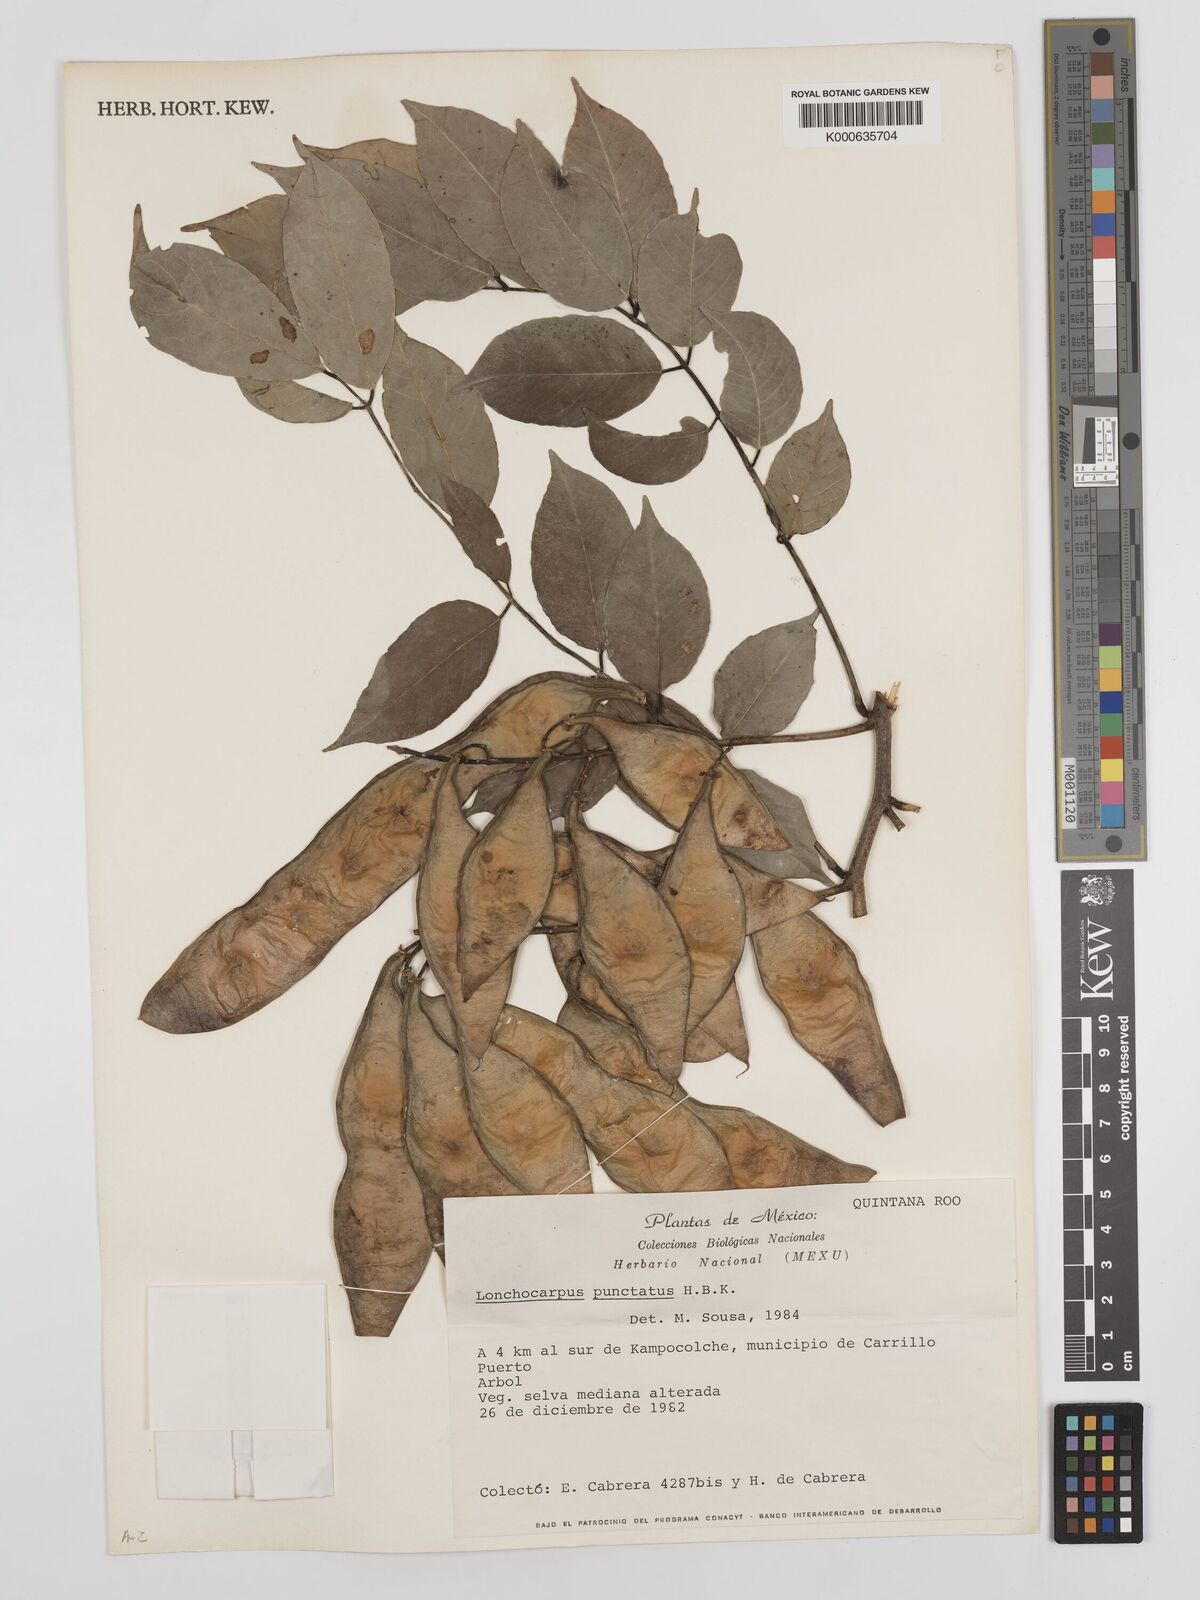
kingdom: Plantae
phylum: Tracheophyta
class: Magnoliopsida
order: Fabales
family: Fabaceae
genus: Lonchocarpus
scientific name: Lonchocarpus punctatus
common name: Dotted lancepod
